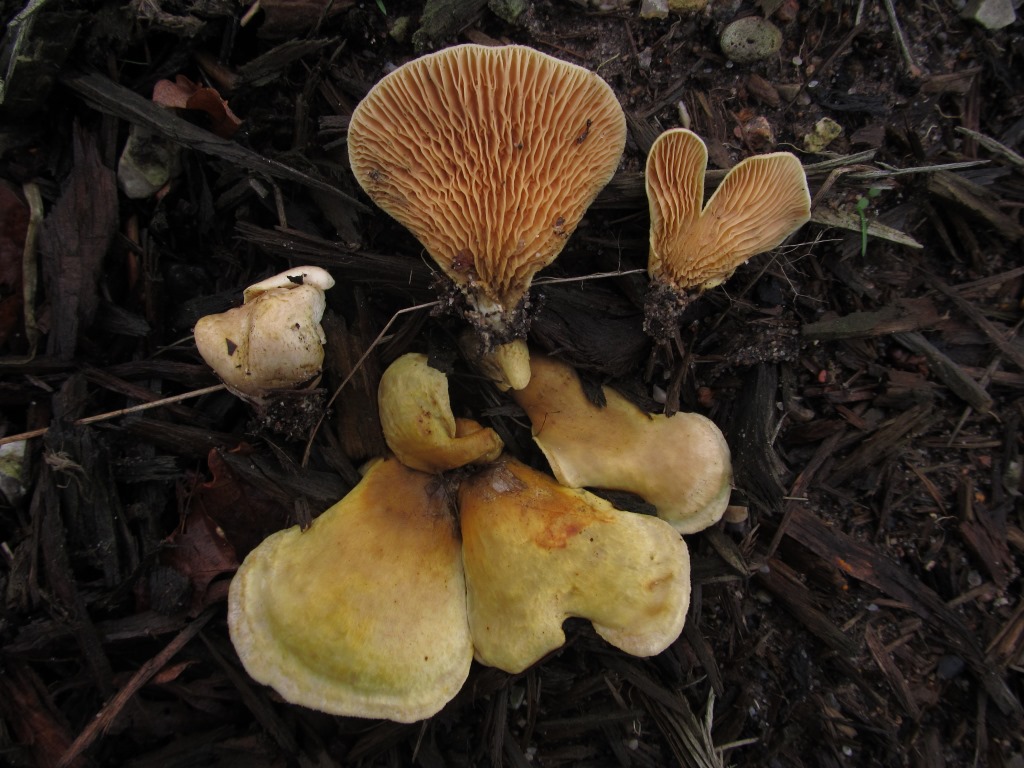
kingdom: Fungi
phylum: Basidiomycota
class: Agaricomycetes
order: Boletales
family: Tapinellaceae
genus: Tapinella
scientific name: Tapinella panuoides
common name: tømmer-viftesvamp
